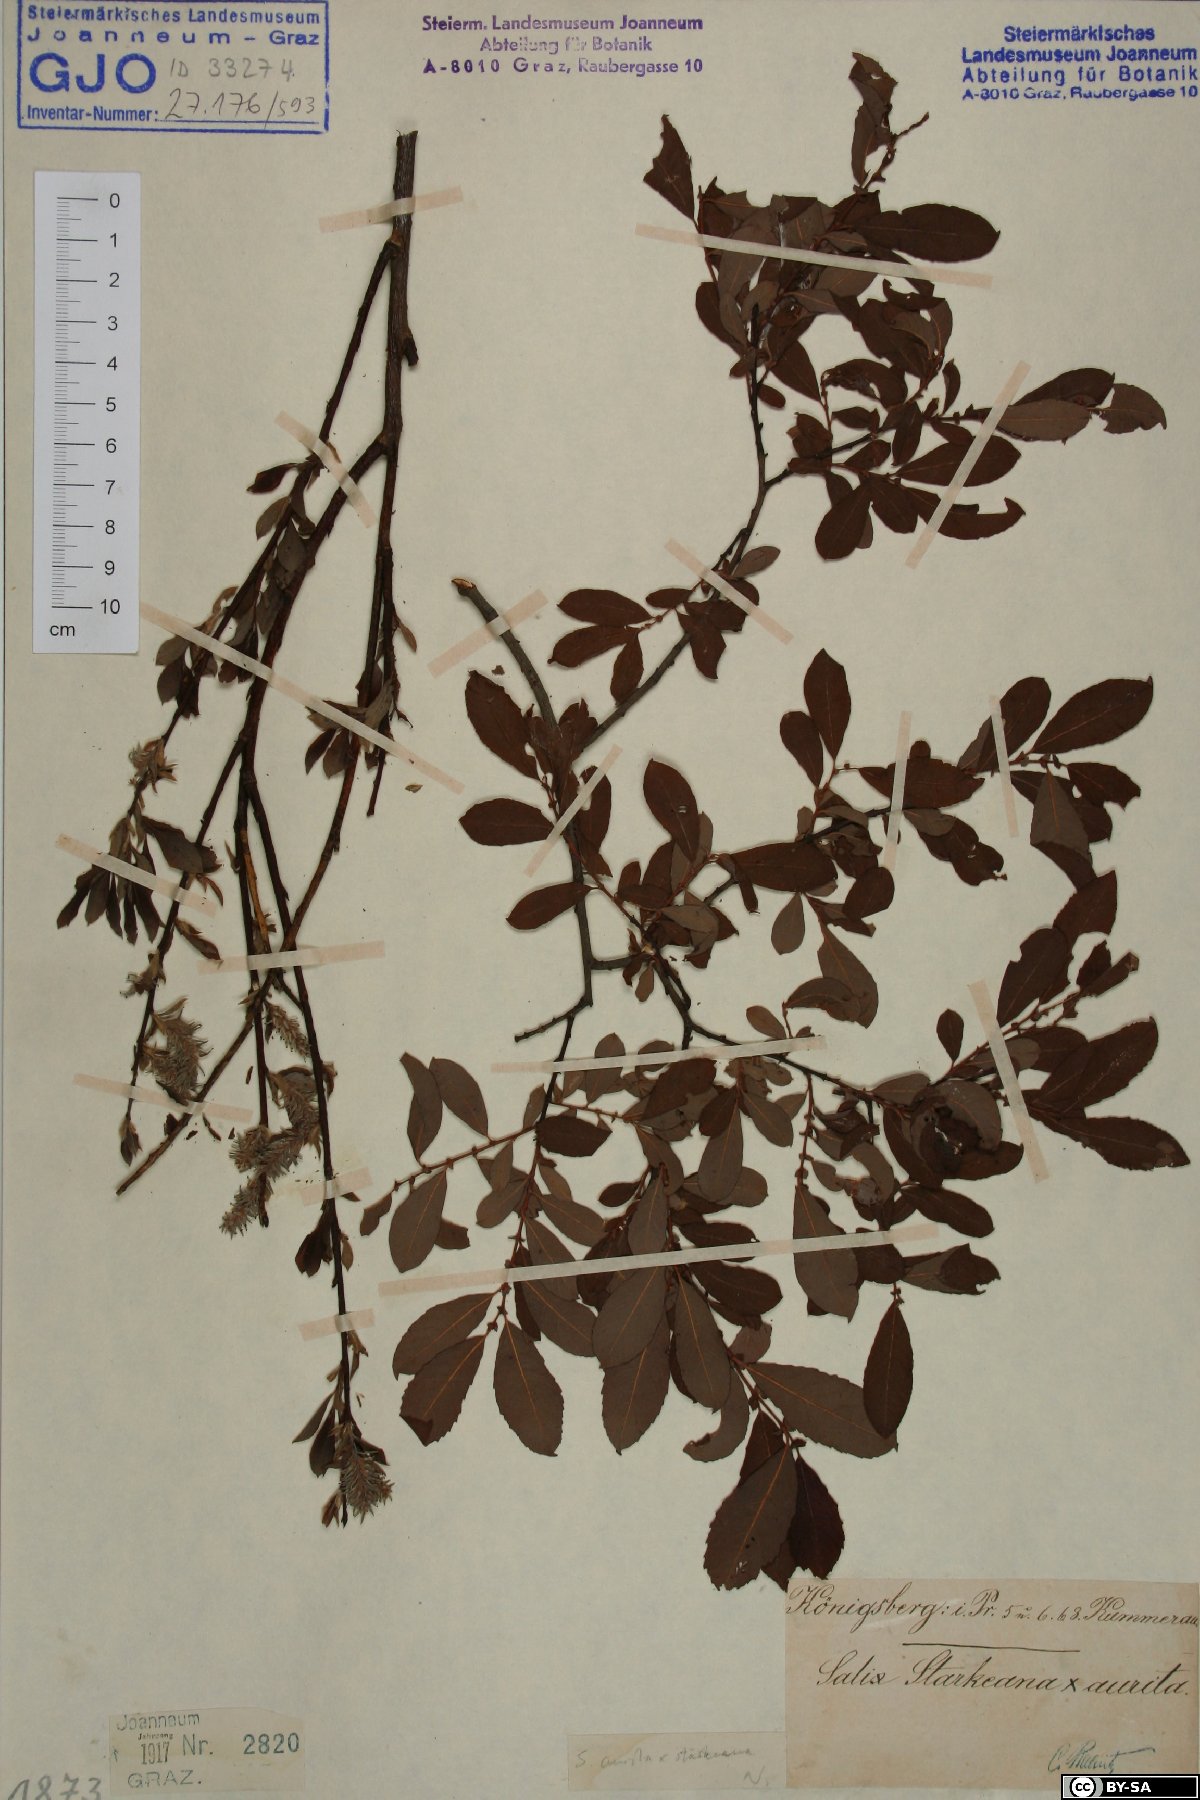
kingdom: Plantae
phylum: Tracheophyta
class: Magnoliopsida
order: Malpighiales
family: Salicaceae
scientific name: Salicaceae
